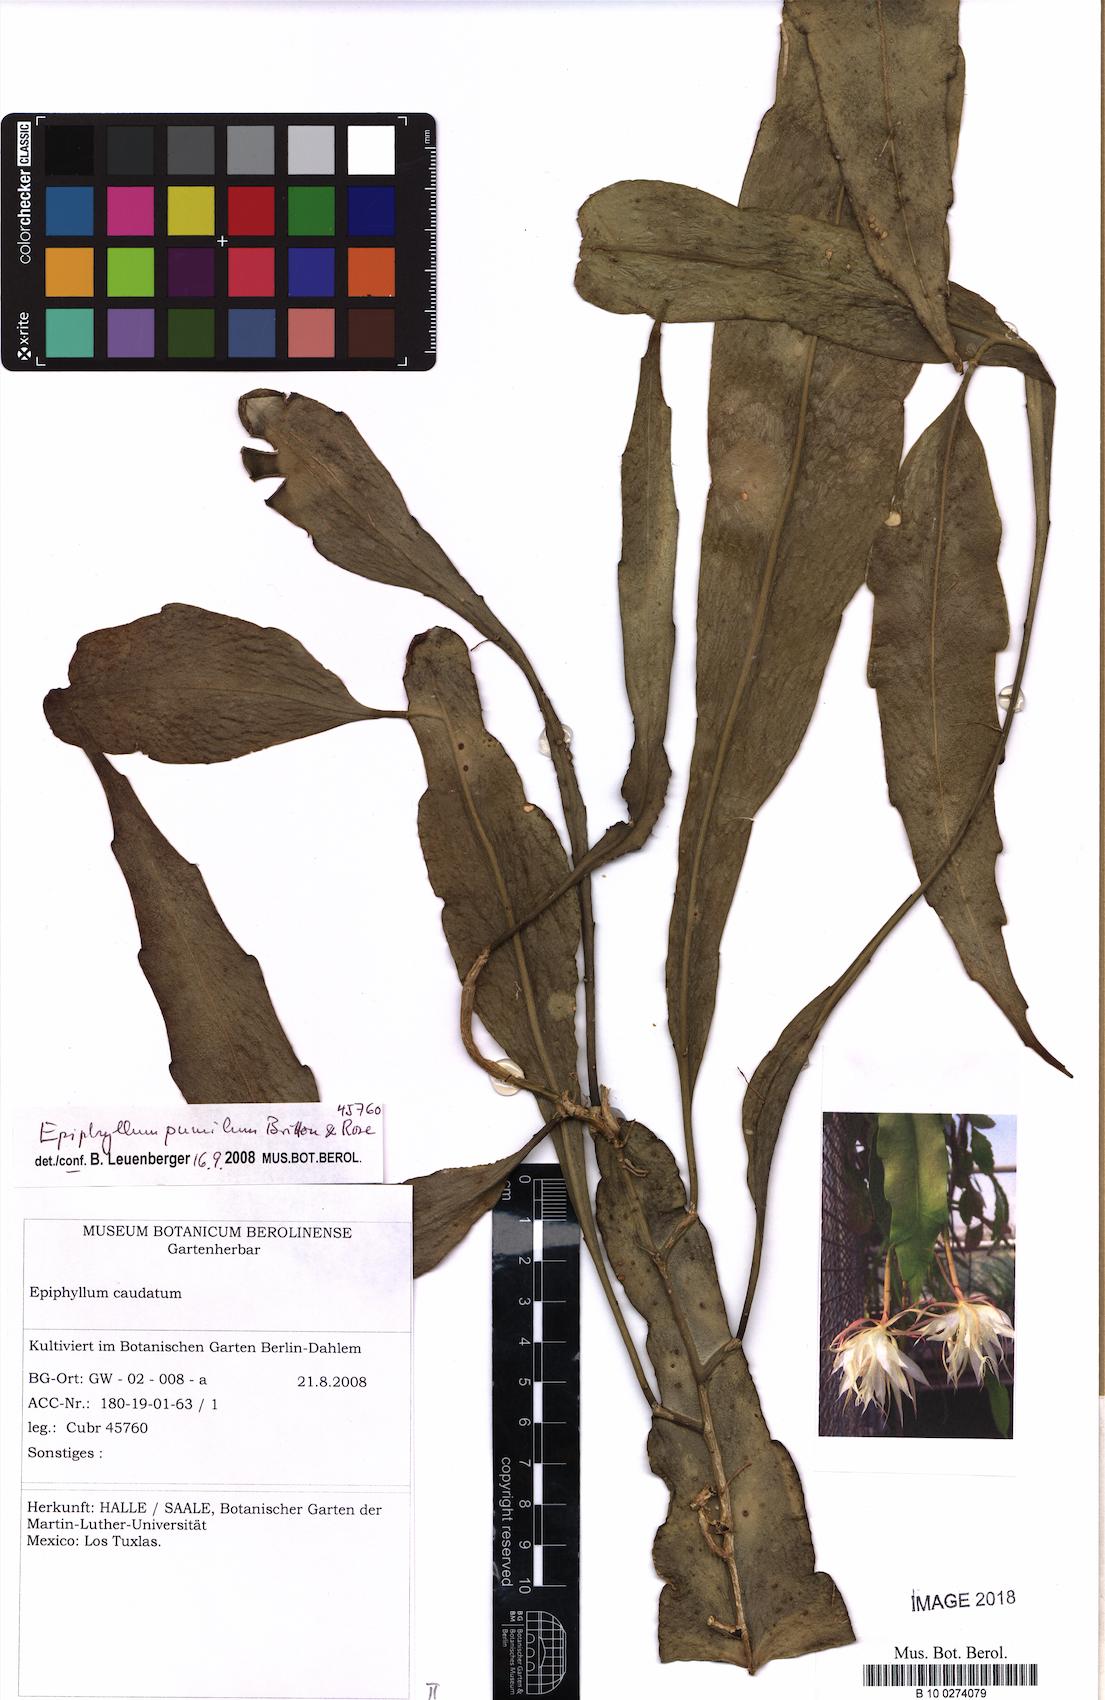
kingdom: Plantae
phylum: Tracheophyta
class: Magnoliopsida
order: Caryophyllales
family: Cactaceae
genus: Epiphyllum
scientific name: Epiphyllum pumilum
